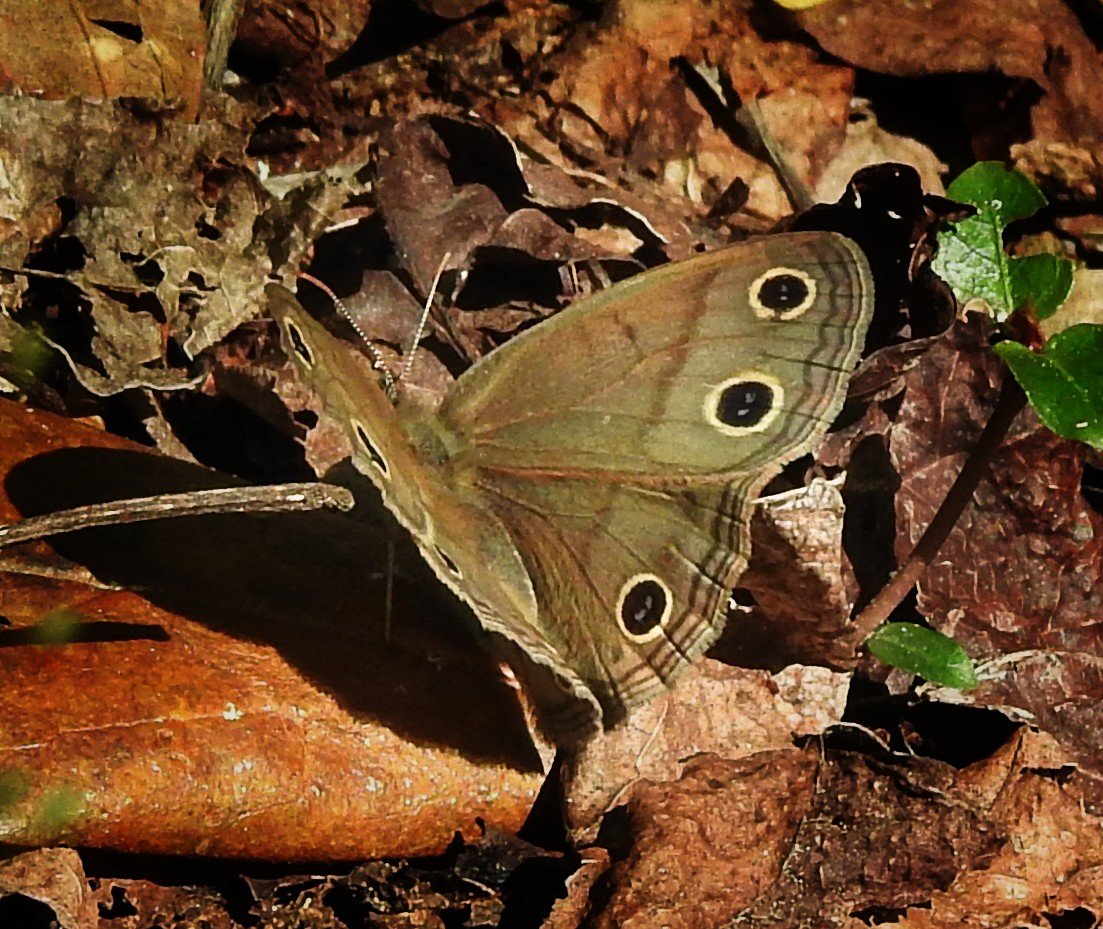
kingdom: Animalia
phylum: Arthropoda
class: Insecta
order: Lepidoptera
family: Nymphalidae
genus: Euptychia
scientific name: Euptychia cymela
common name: Little Wood Satyr
